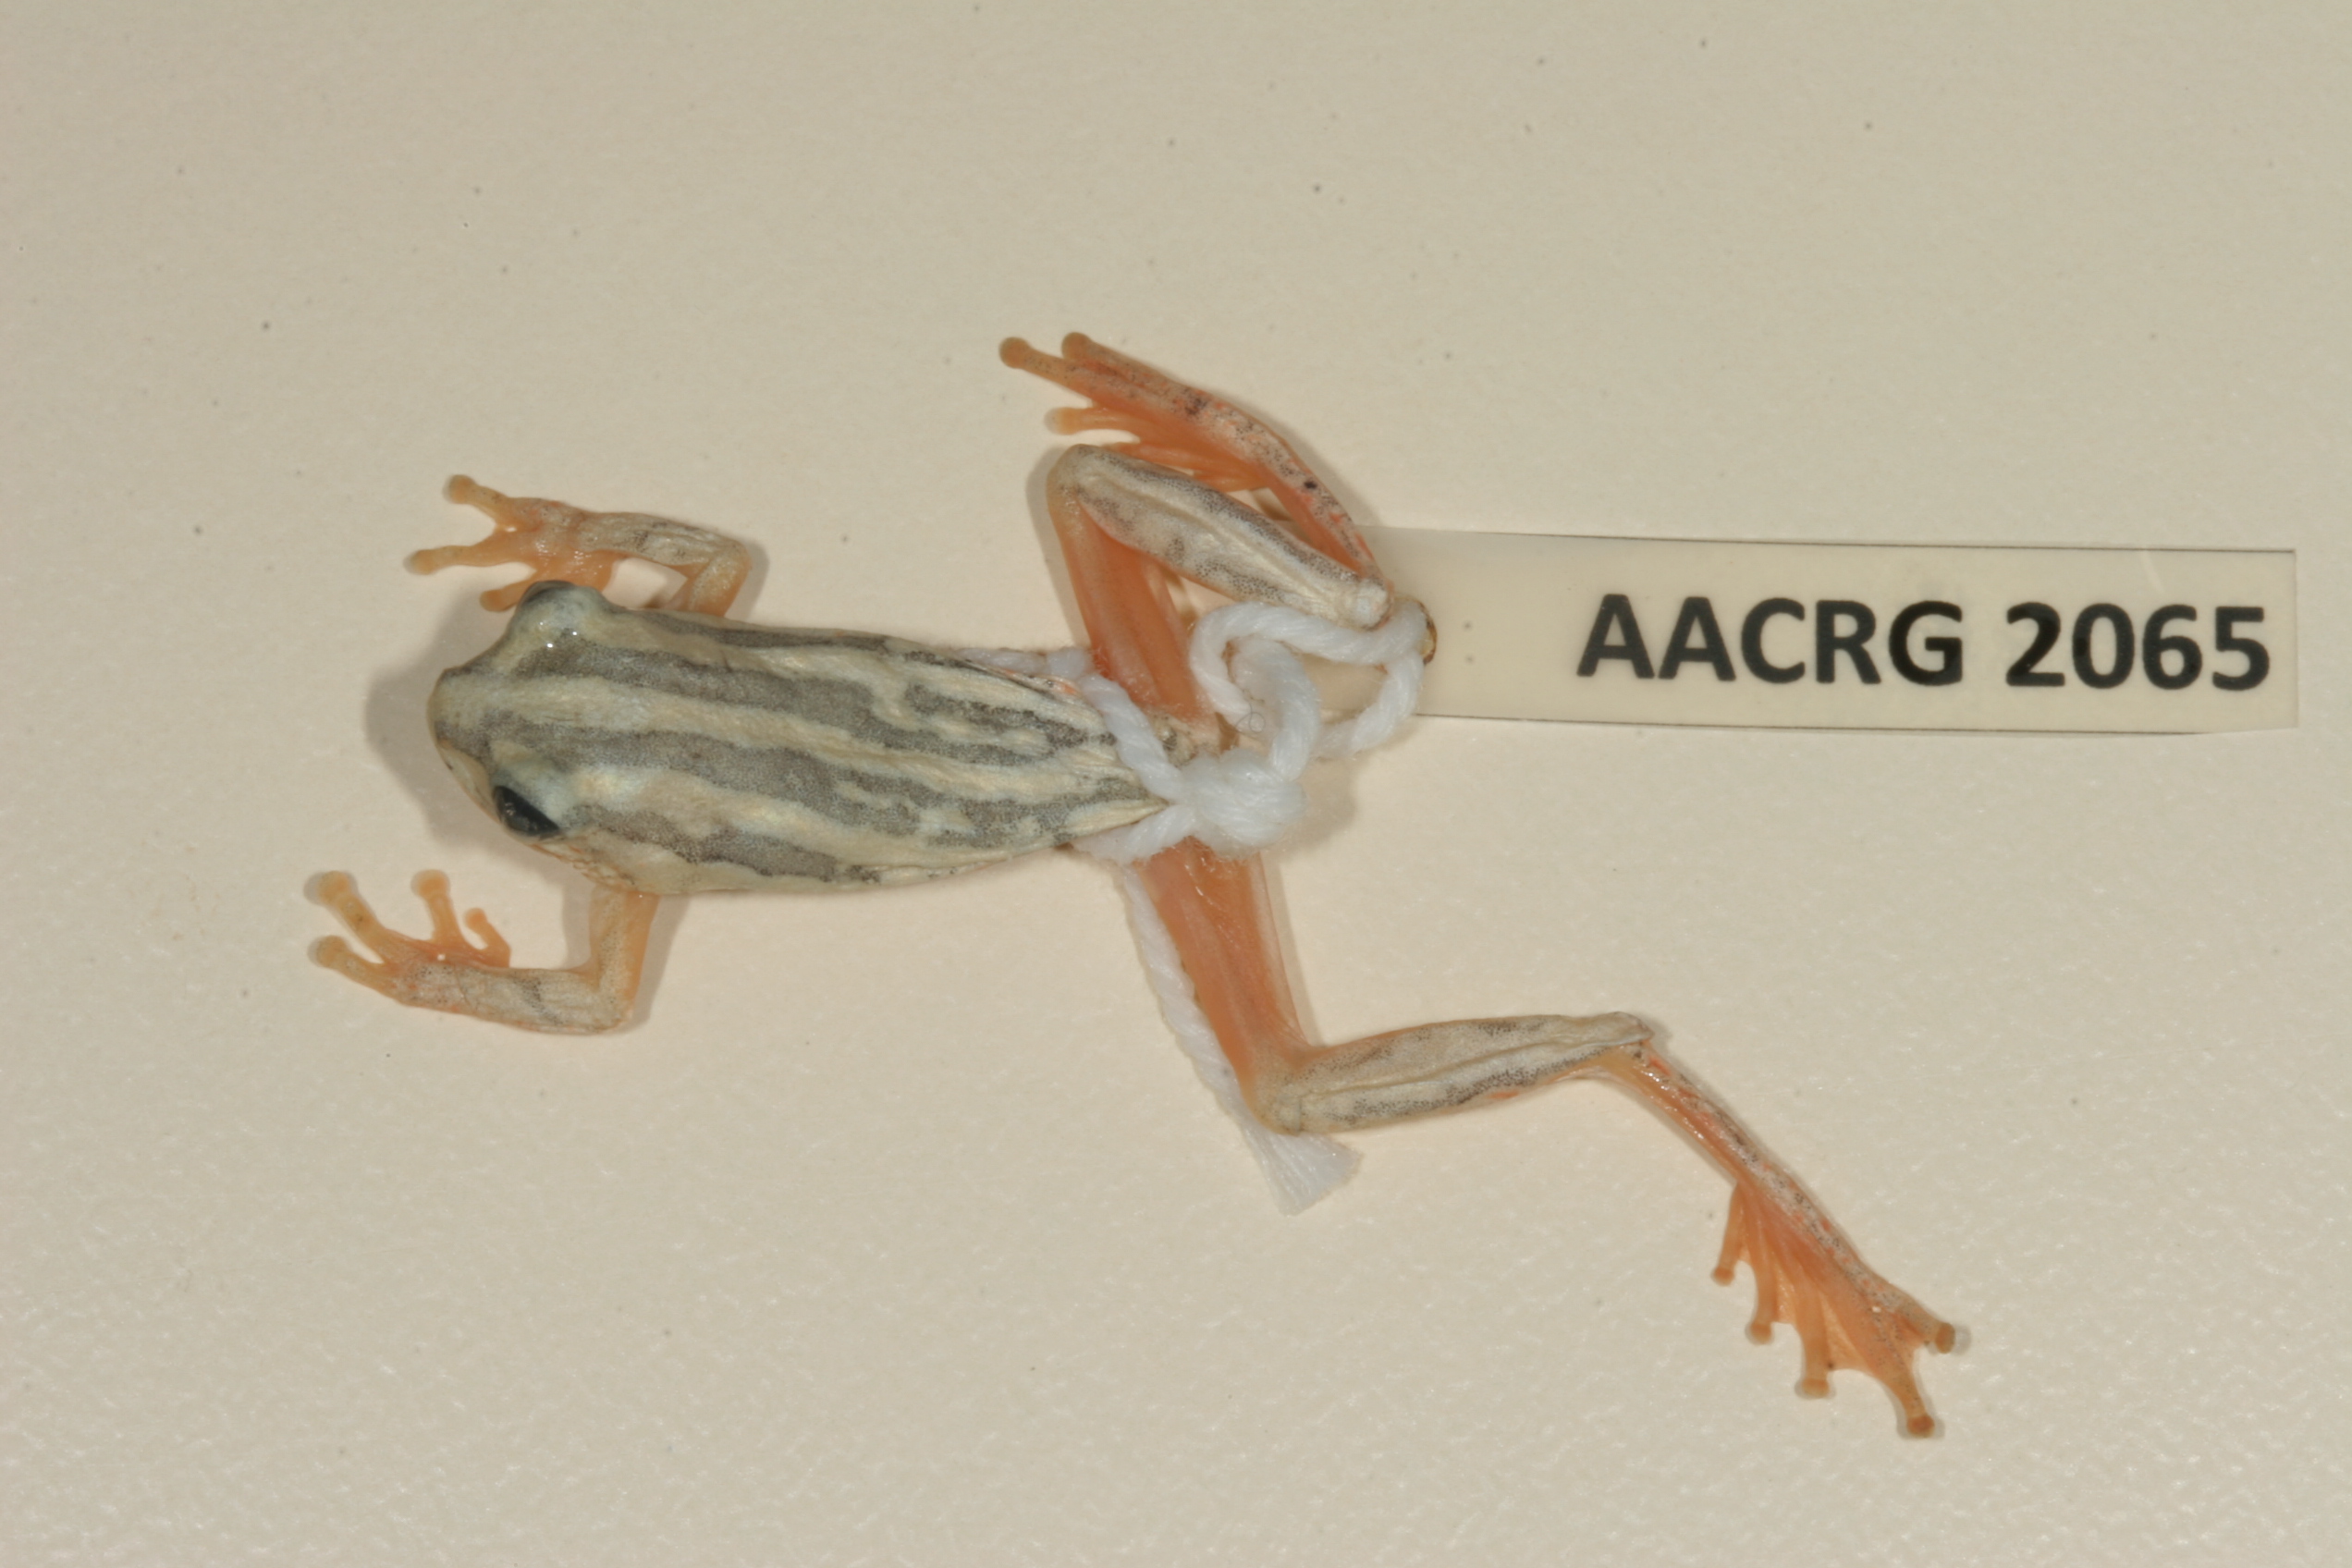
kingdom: Animalia
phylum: Chordata
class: Amphibia
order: Anura
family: Hyperoliidae
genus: Hyperolius
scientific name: Hyperolius marmoratus
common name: Painted reed frog
